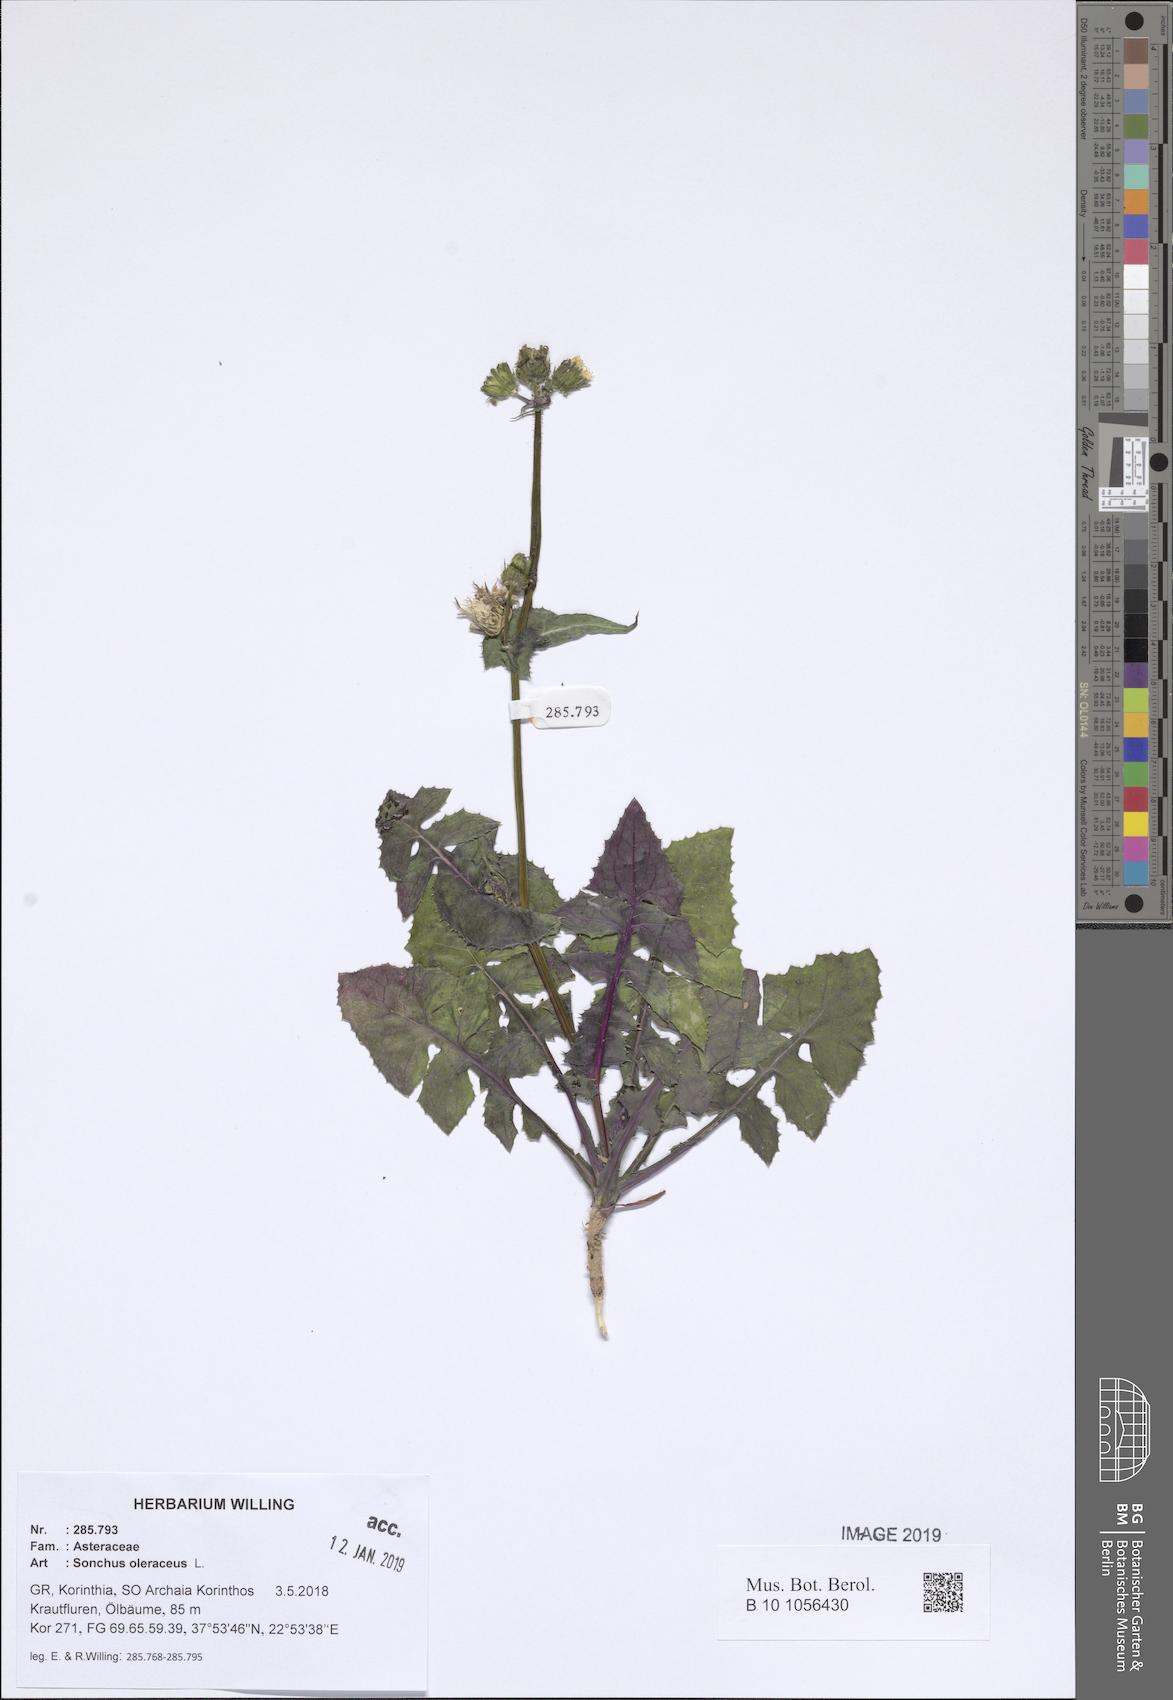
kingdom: Plantae
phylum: Tracheophyta
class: Magnoliopsida
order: Asterales
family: Asteraceae
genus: Sonchus
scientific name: Sonchus oleraceus
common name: Common sowthistle
